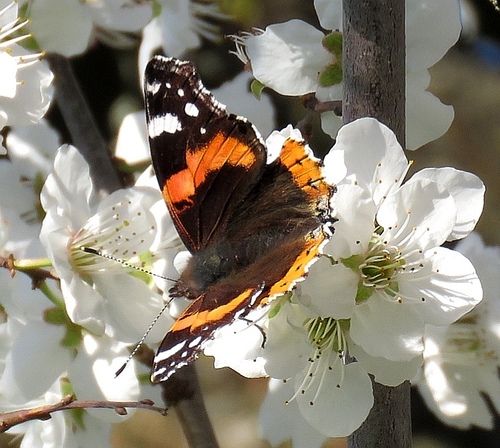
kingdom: Animalia
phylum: Arthropoda
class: Insecta
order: Lepidoptera
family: Nymphalidae
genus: Vanessa
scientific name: Vanessa atalanta
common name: Red admiral
